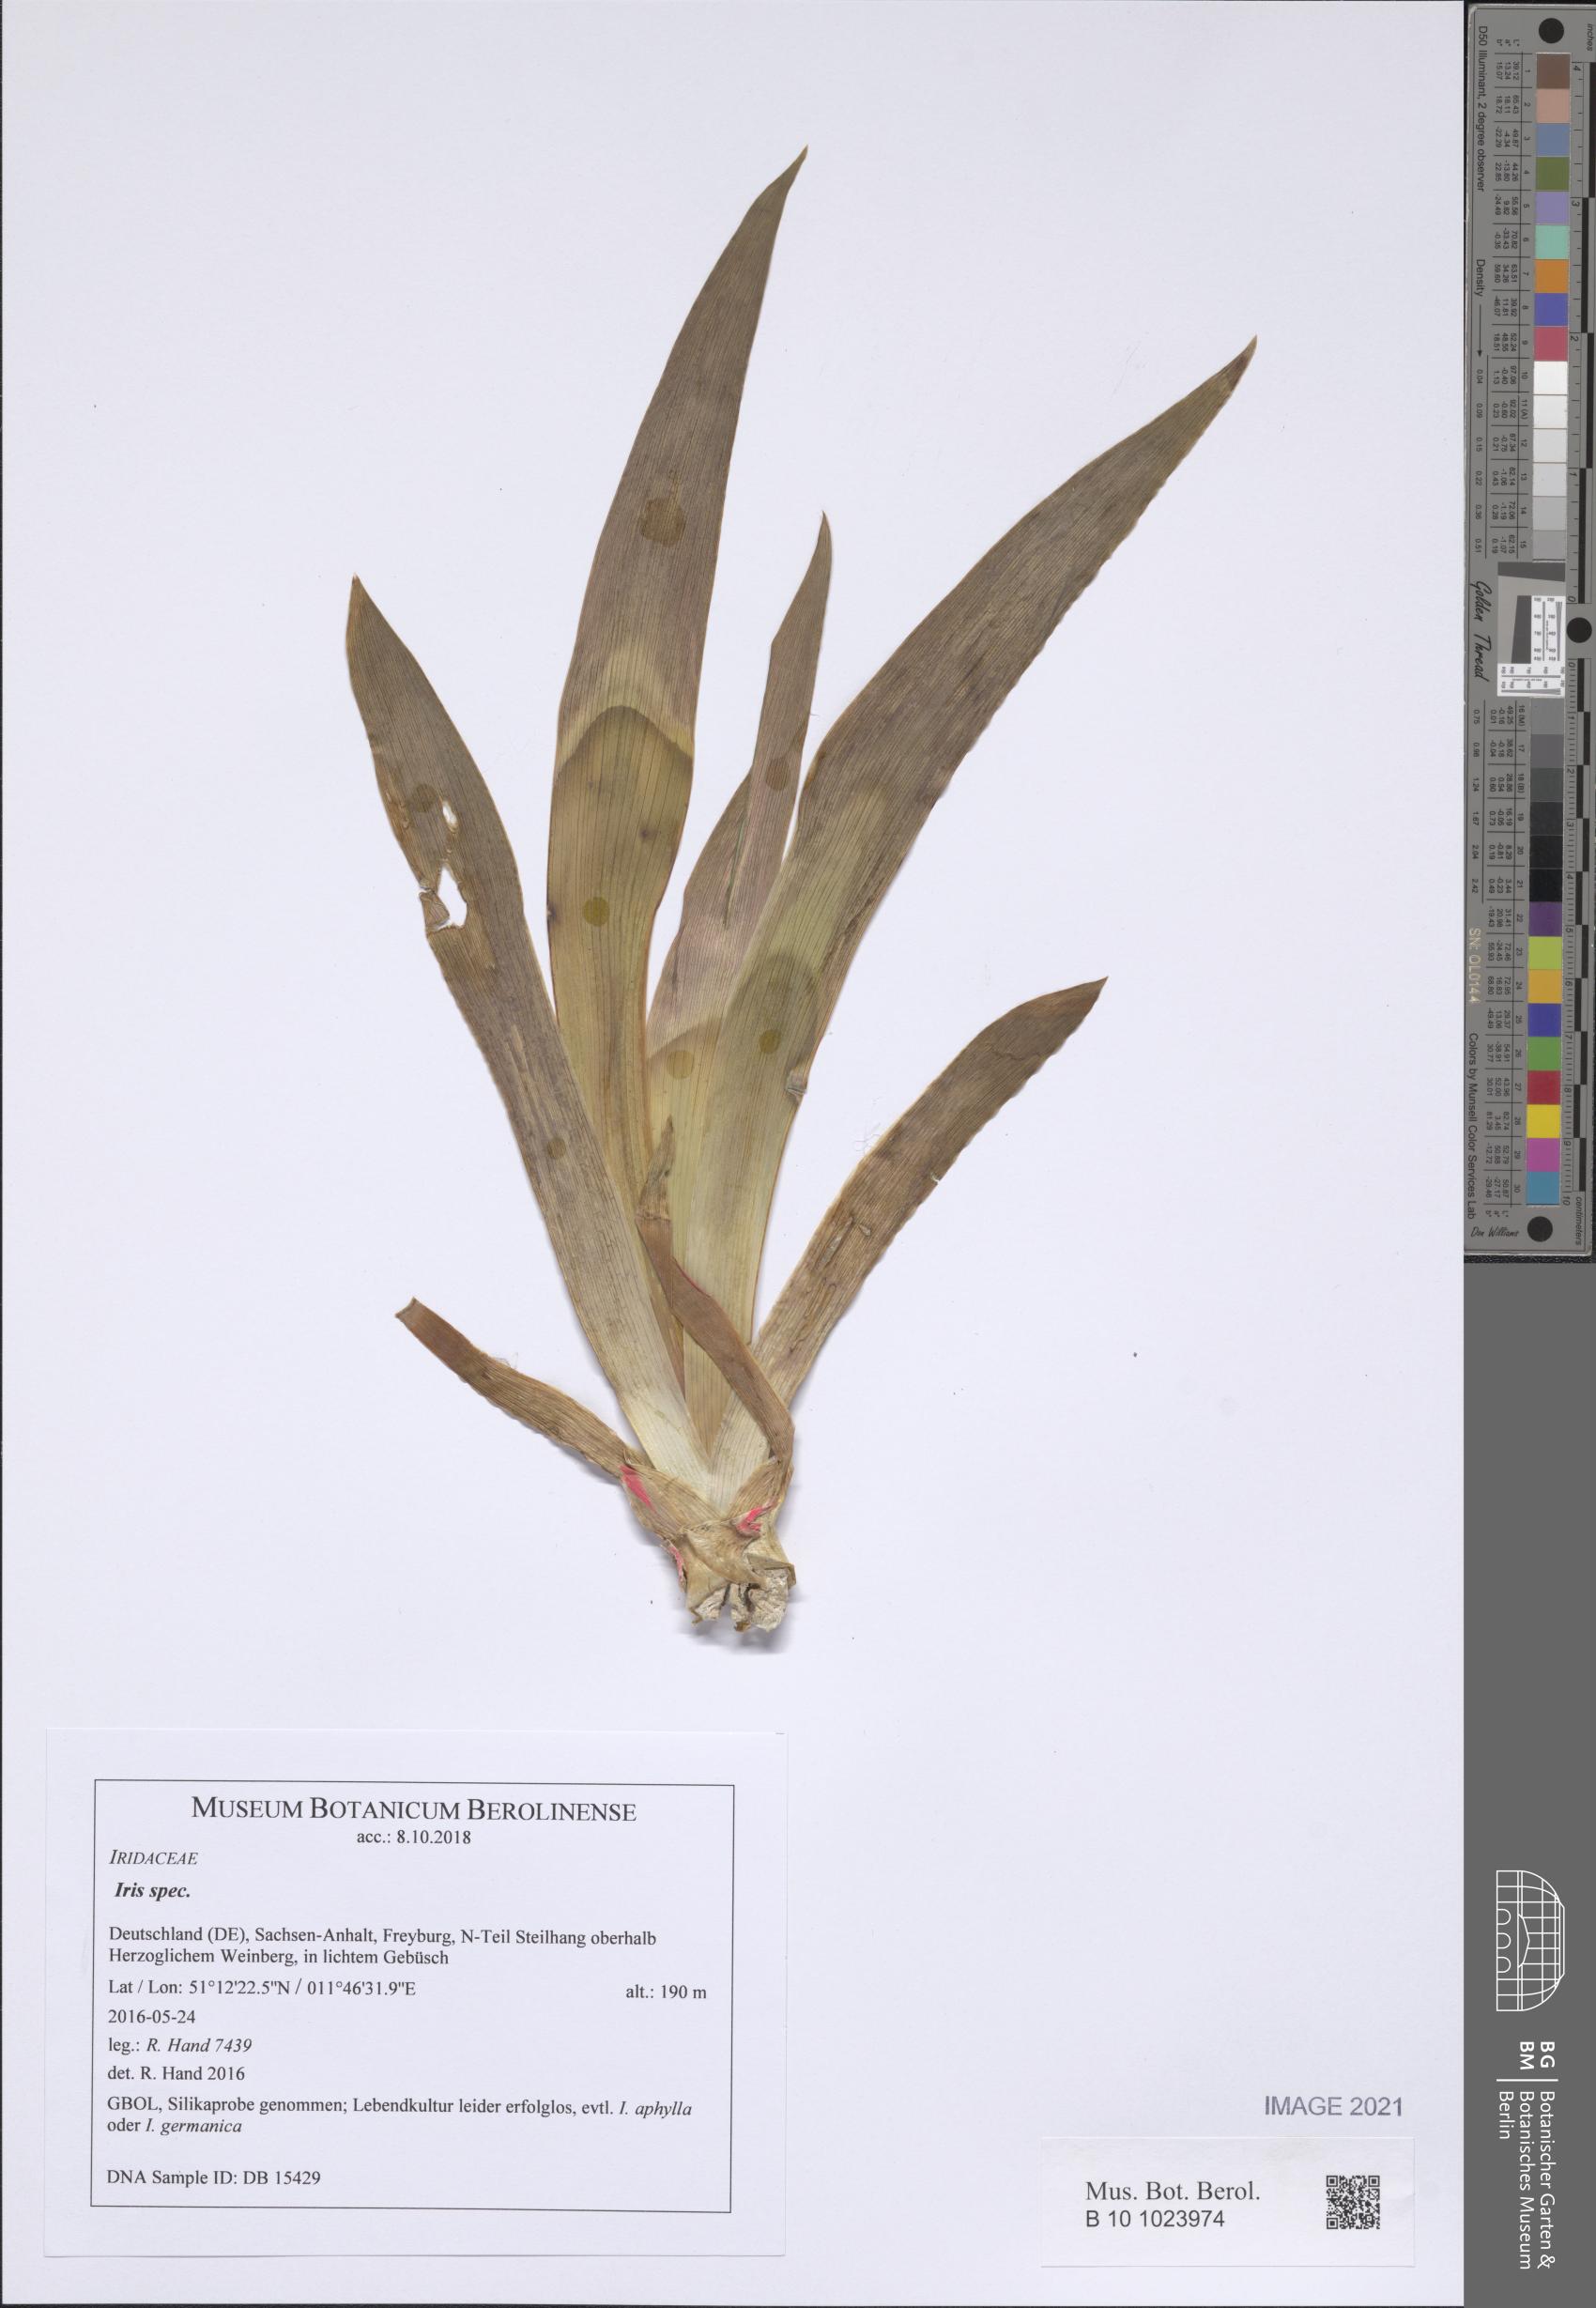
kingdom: Plantae
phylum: Tracheophyta
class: Liliopsida
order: Asparagales
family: Iridaceae
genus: Iris
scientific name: Iris
